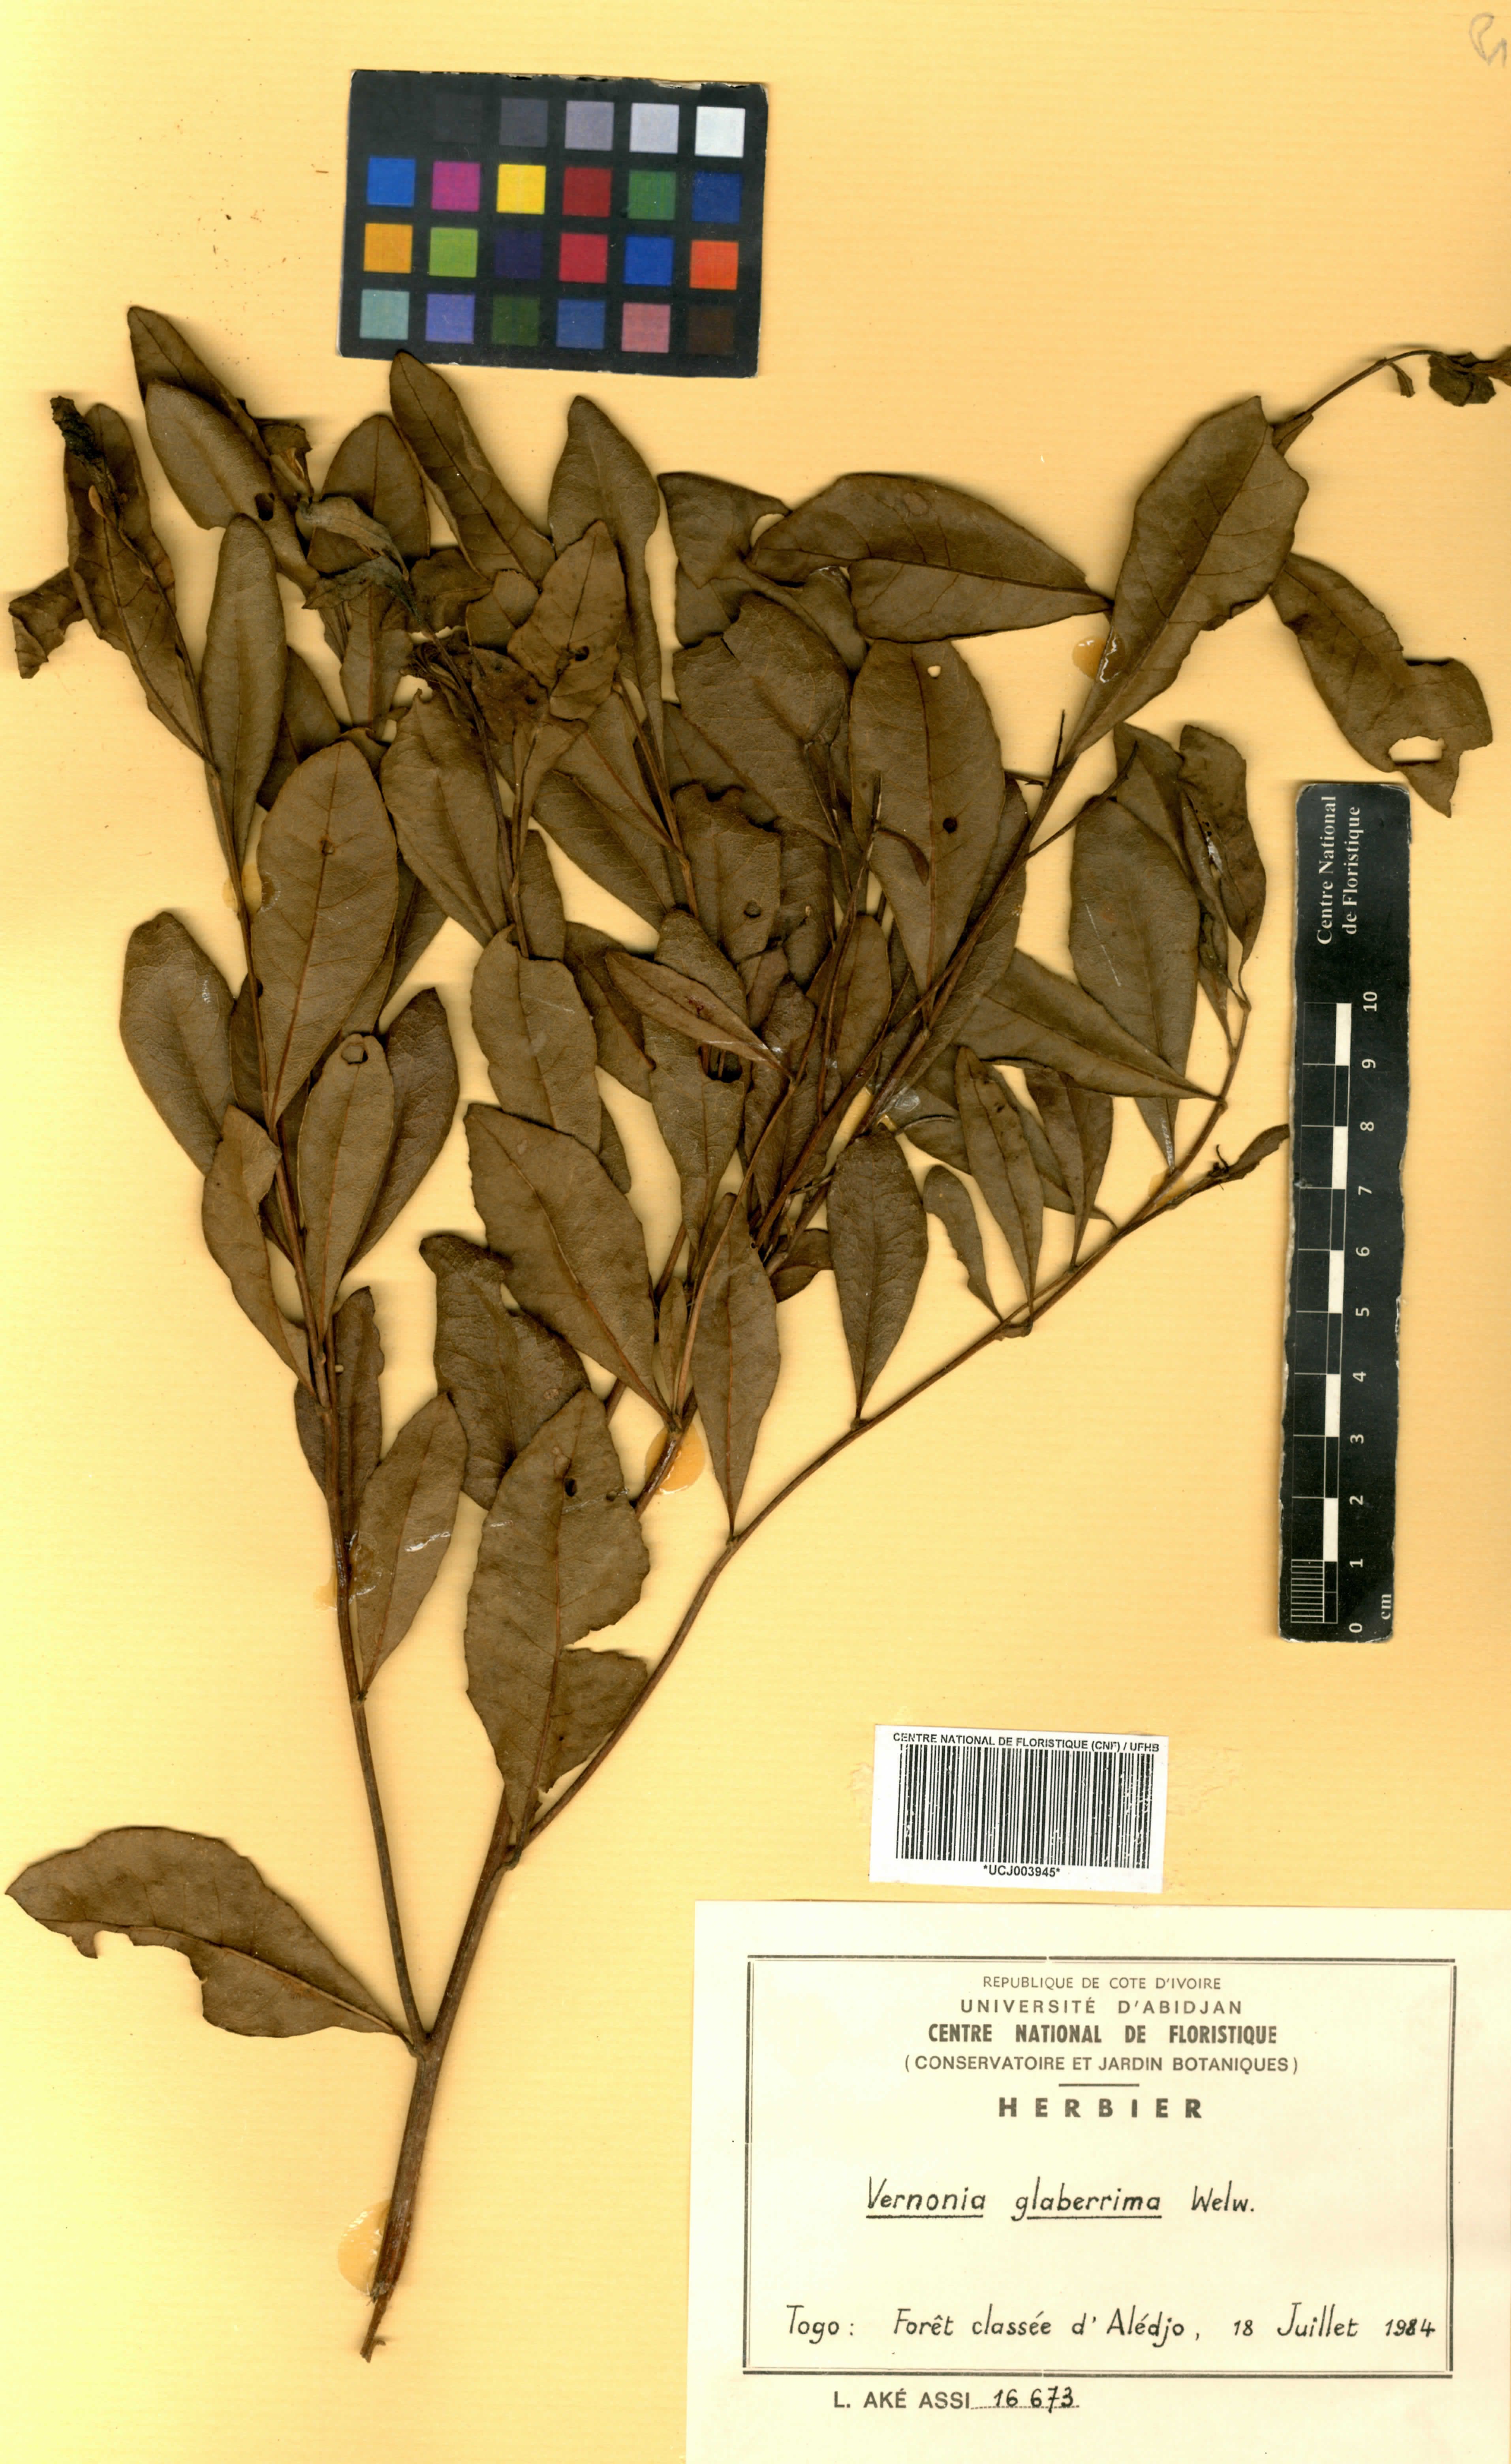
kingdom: Plantae
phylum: Tracheophyta
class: Magnoliopsida
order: Asterales
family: Asteraceae
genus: Gymnanthemum
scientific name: Gymnanthemum glaberrimum
